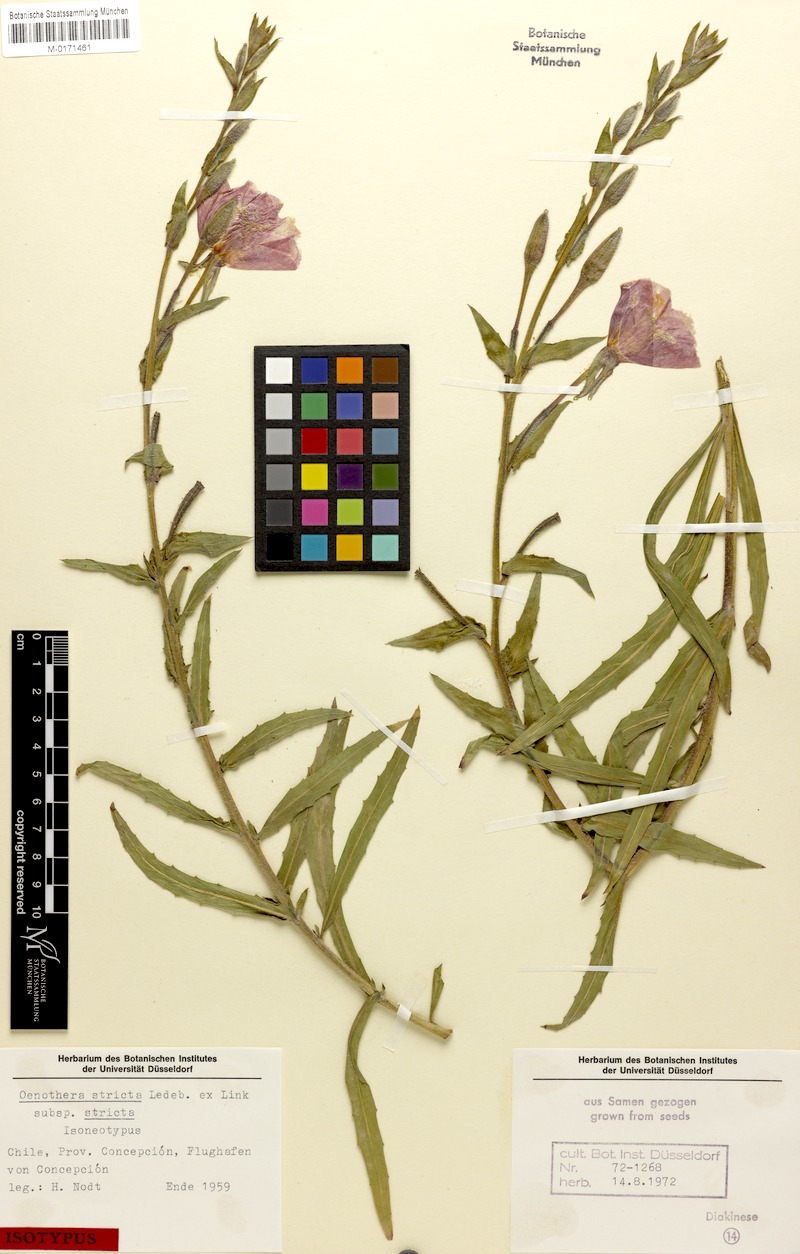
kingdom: Plantae
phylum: Tracheophyta
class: Magnoliopsida
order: Myrtales
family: Onagraceae
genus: Oenothera
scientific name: Oenothera stricta
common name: Fragrant evening-primrose
